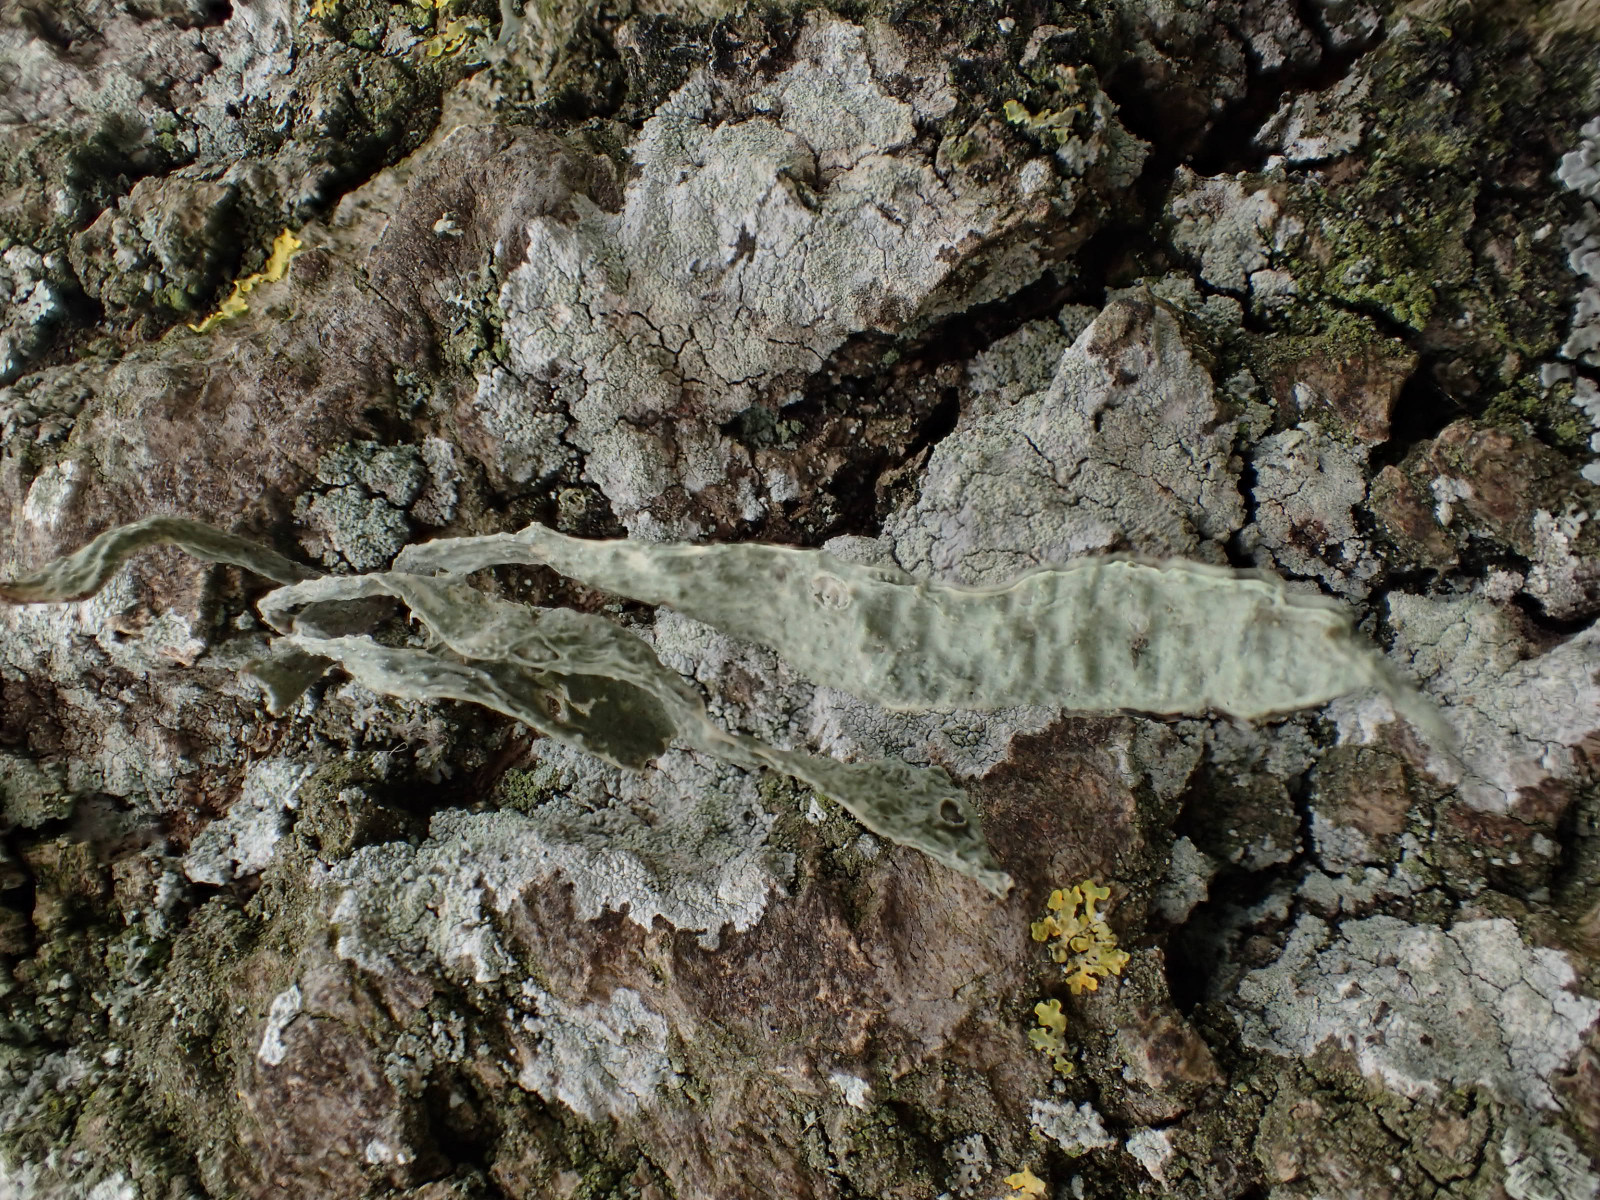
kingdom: Fungi
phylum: Ascomycota
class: Lecanoromycetes
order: Lecanorales
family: Ramalinaceae
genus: Ramalina
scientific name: Ramalina fraxinea
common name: stor grenlav
